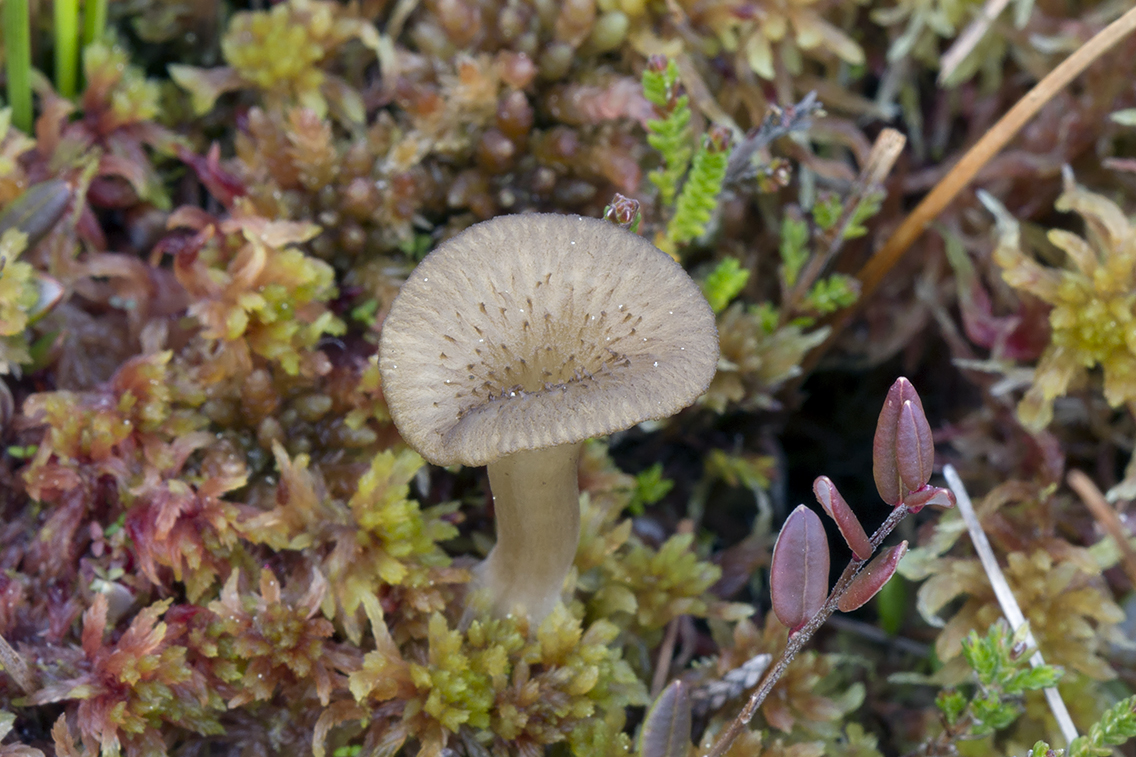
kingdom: Fungi
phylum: Basidiomycota
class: Agaricomycetes
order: Agaricales
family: Hygrophoraceae
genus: Arrhenia
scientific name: Arrhenia bigelowii
